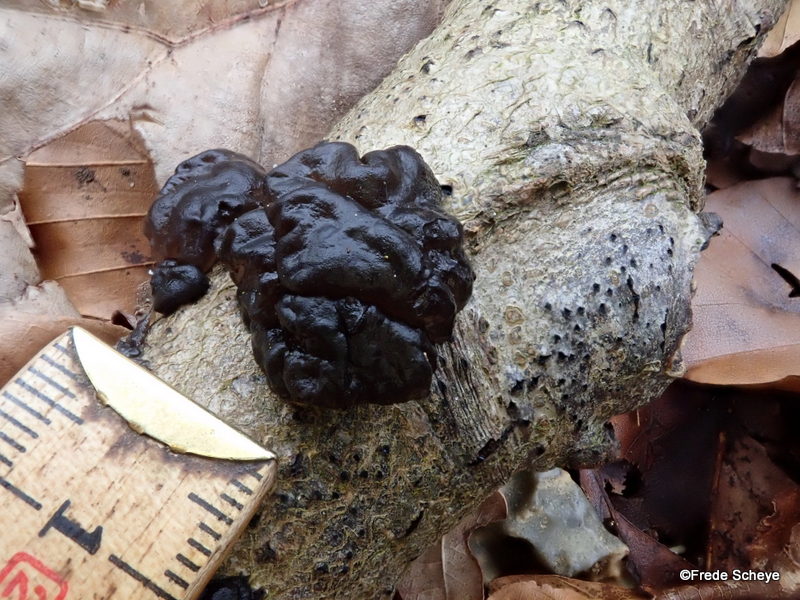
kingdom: Fungi
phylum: Basidiomycota
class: Agaricomycetes
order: Auriculariales
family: Auriculariaceae
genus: Exidia
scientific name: Exidia nigricans
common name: almindelig bævretop
